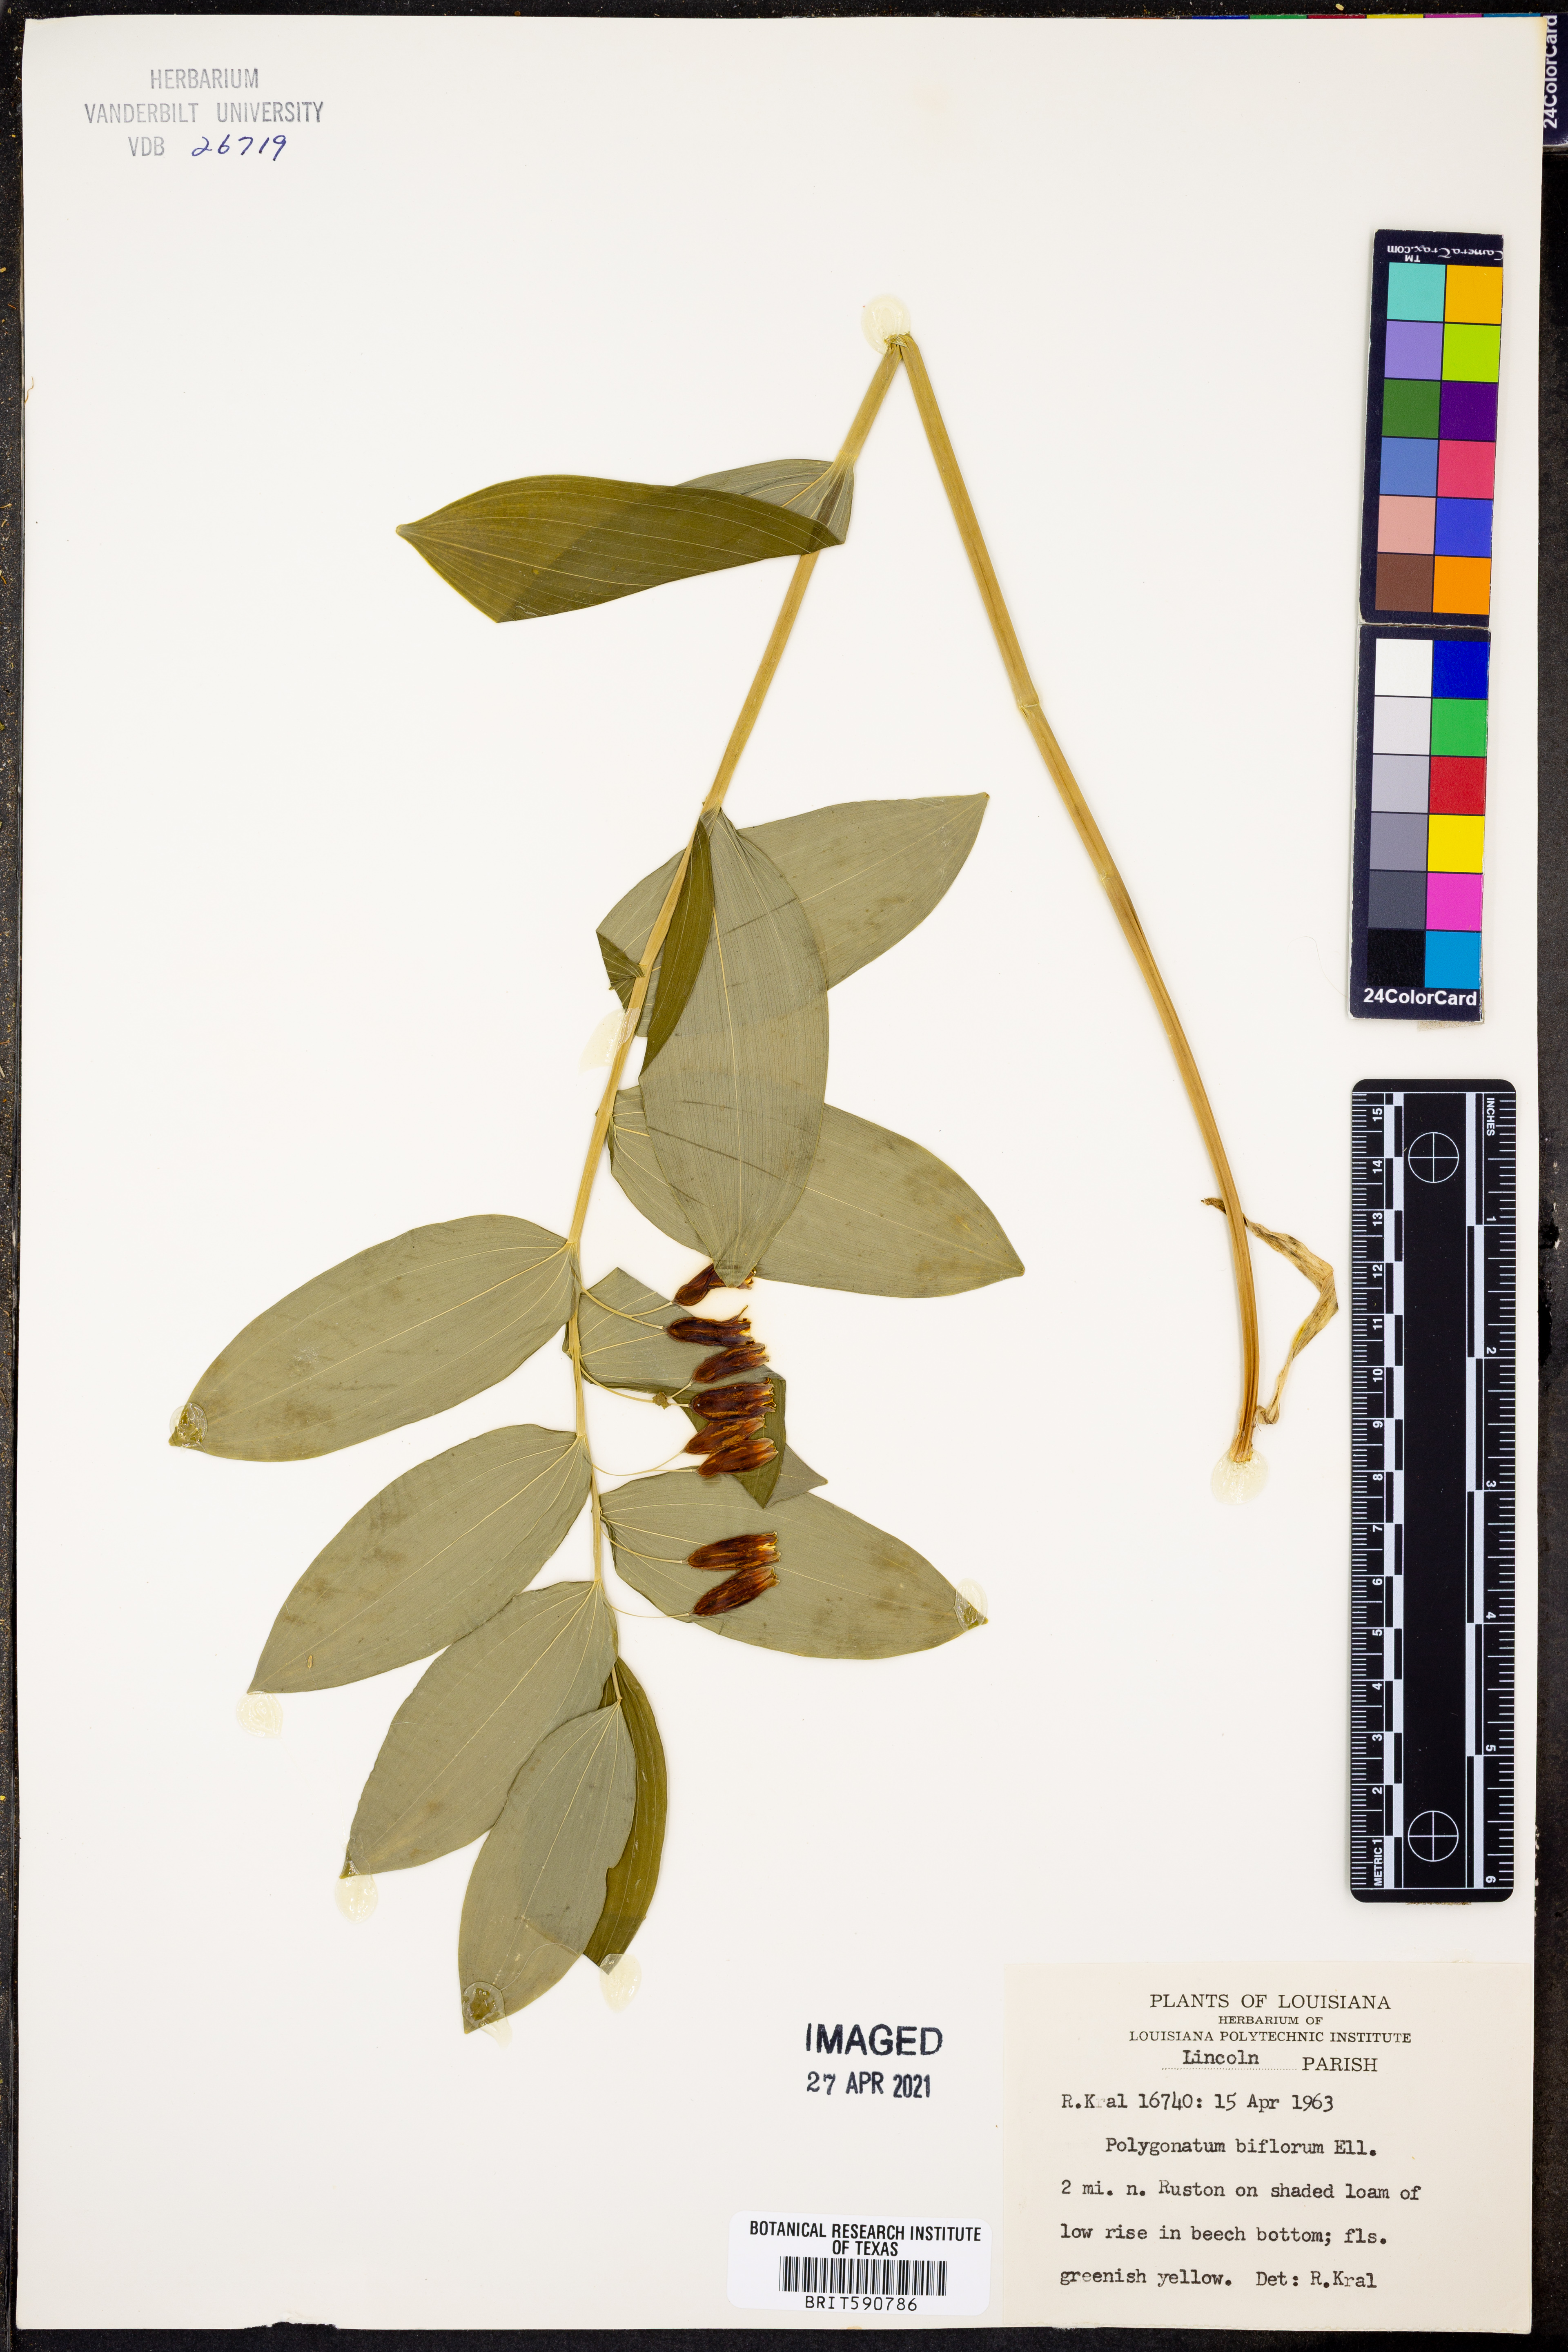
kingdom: Plantae
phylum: Tracheophyta
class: Liliopsida
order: Asparagales
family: Asparagaceae
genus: Polygonatum
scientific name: Polygonatum biflorum
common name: American solomon's-seal
